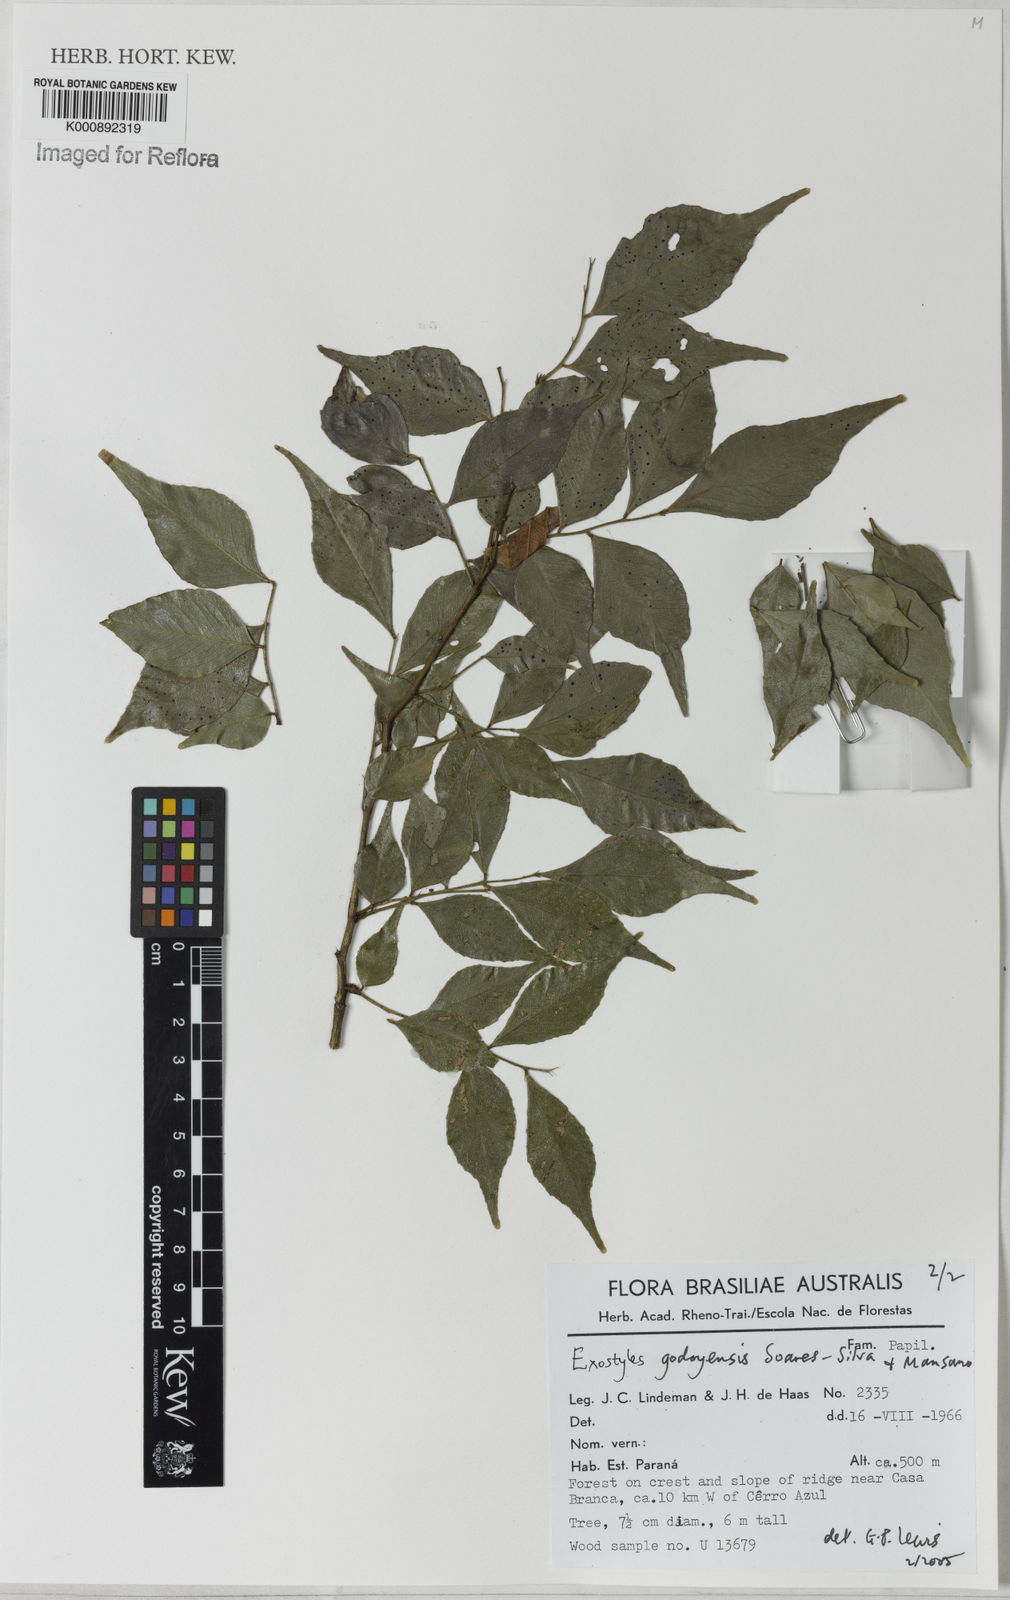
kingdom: Plantae
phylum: Tracheophyta
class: Magnoliopsida
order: Fabales
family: Fabaceae
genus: Exostyles
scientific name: Exostyles godoyensis
